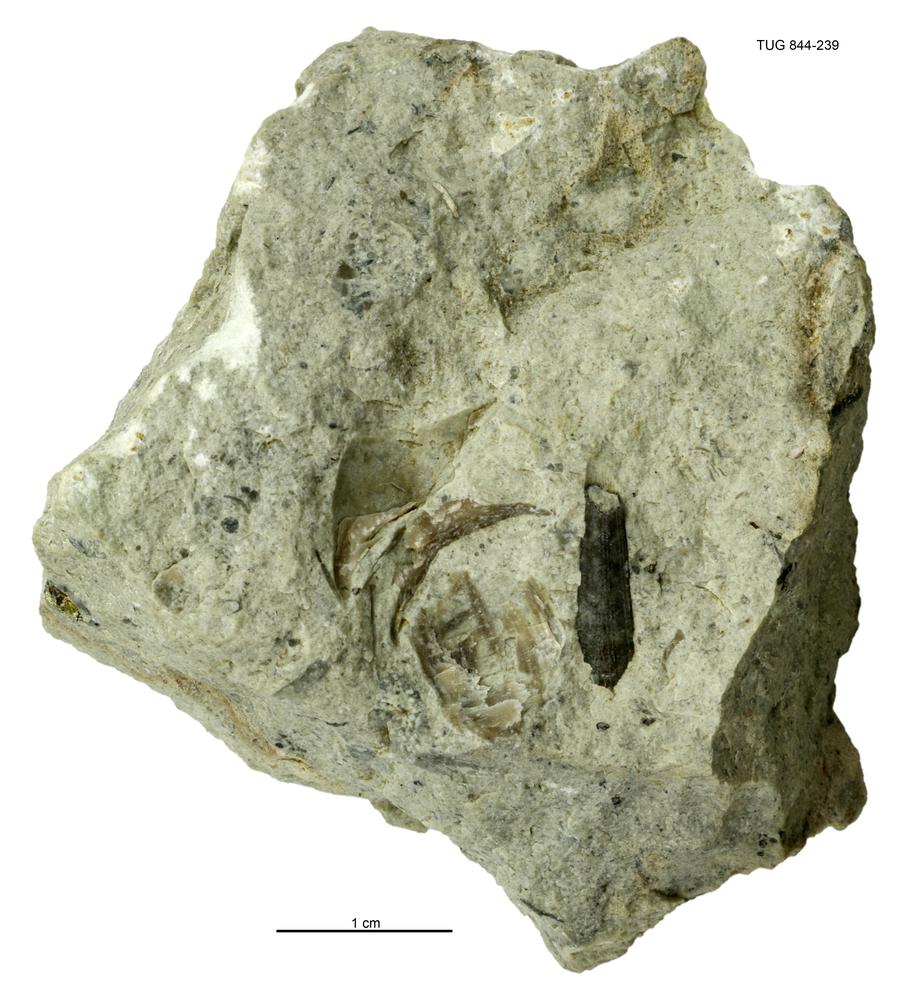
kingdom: Animalia
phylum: Annelida
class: Polychaeta
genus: Hyolithes
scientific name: Hyolithes
